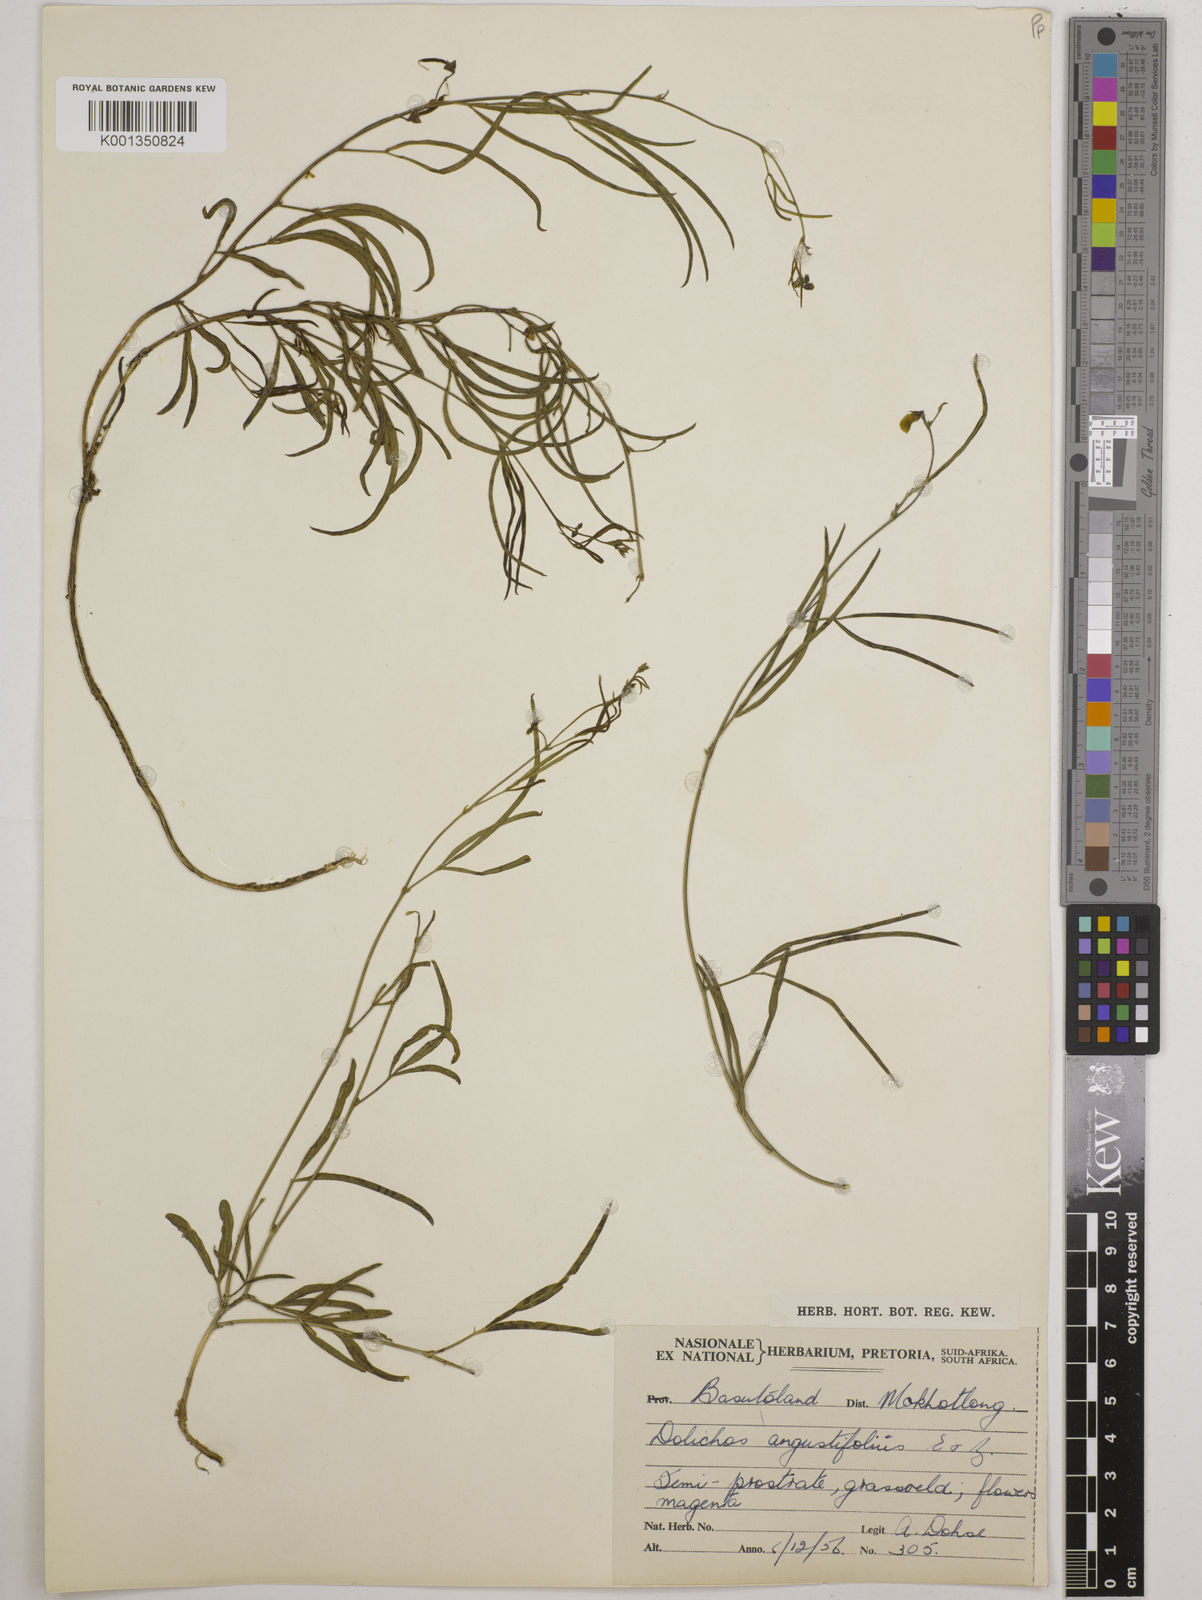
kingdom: Plantae
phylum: Tracheophyta
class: Magnoliopsida
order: Fabales
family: Fabaceae
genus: Dolichos
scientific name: Dolichos
